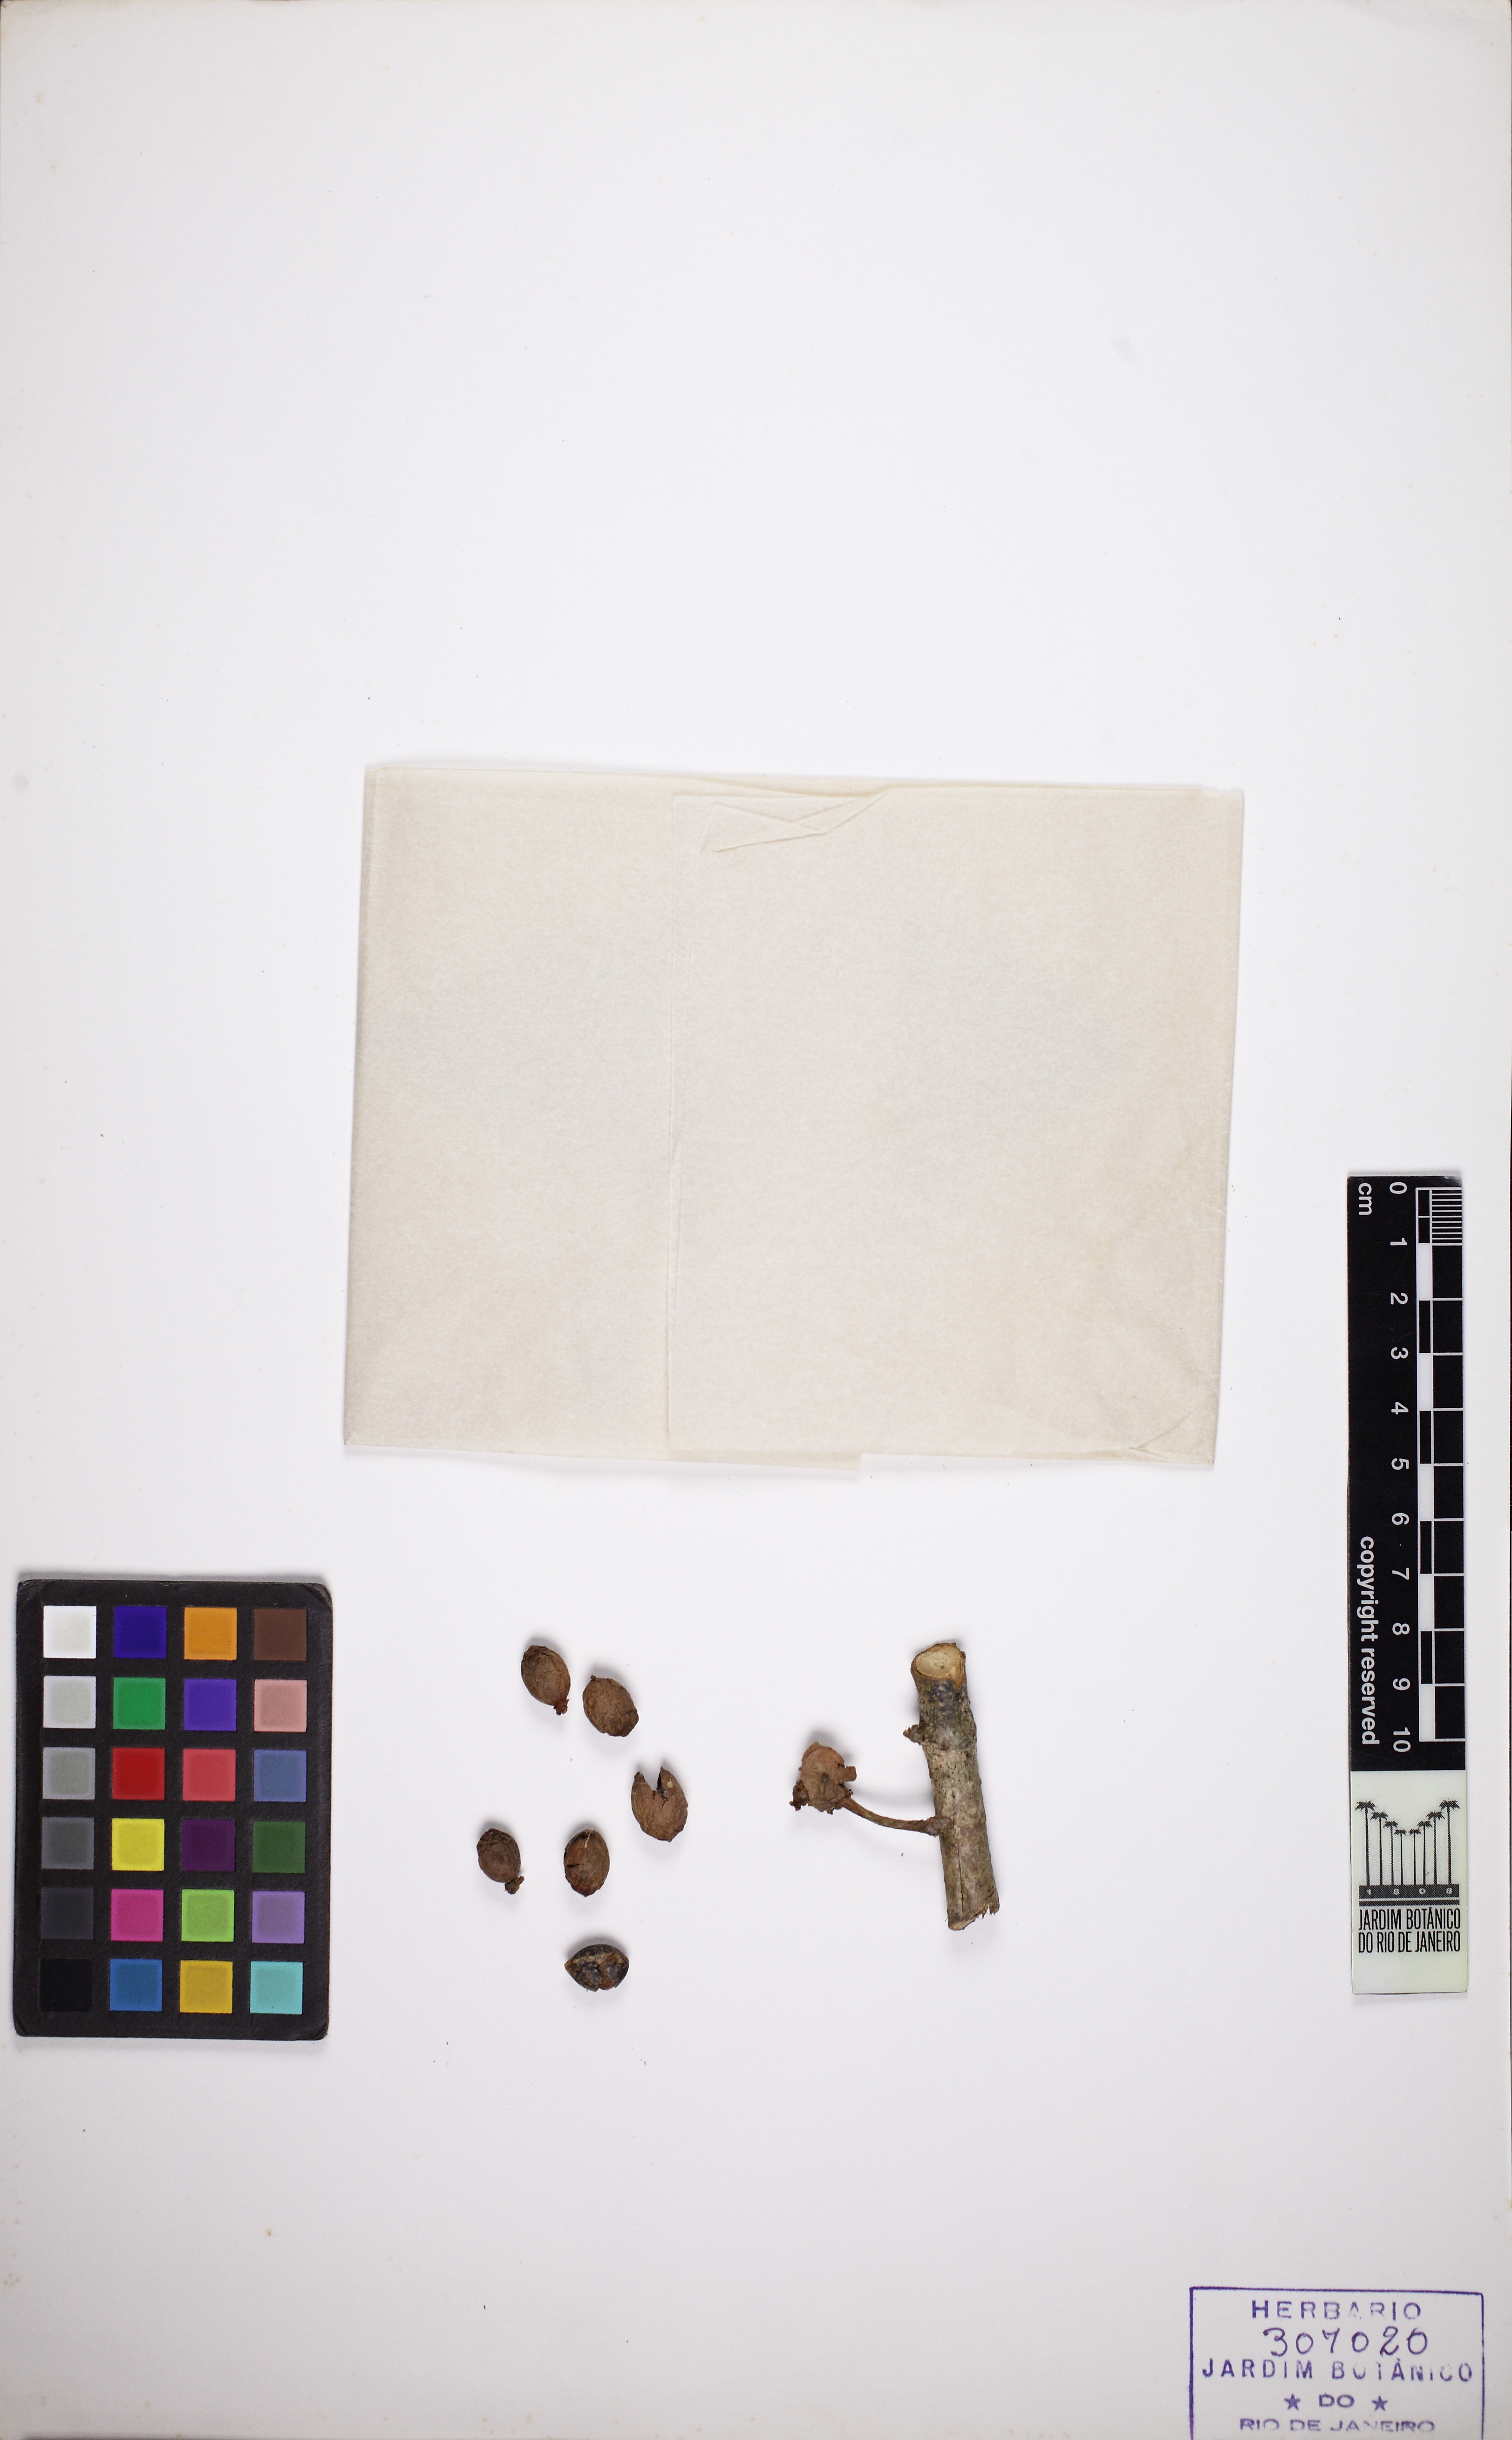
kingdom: Plantae
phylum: Tracheophyta
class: Magnoliopsida
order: Laurales
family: Monimiaceae
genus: Mollinedia
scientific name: Mollinedia ovata
